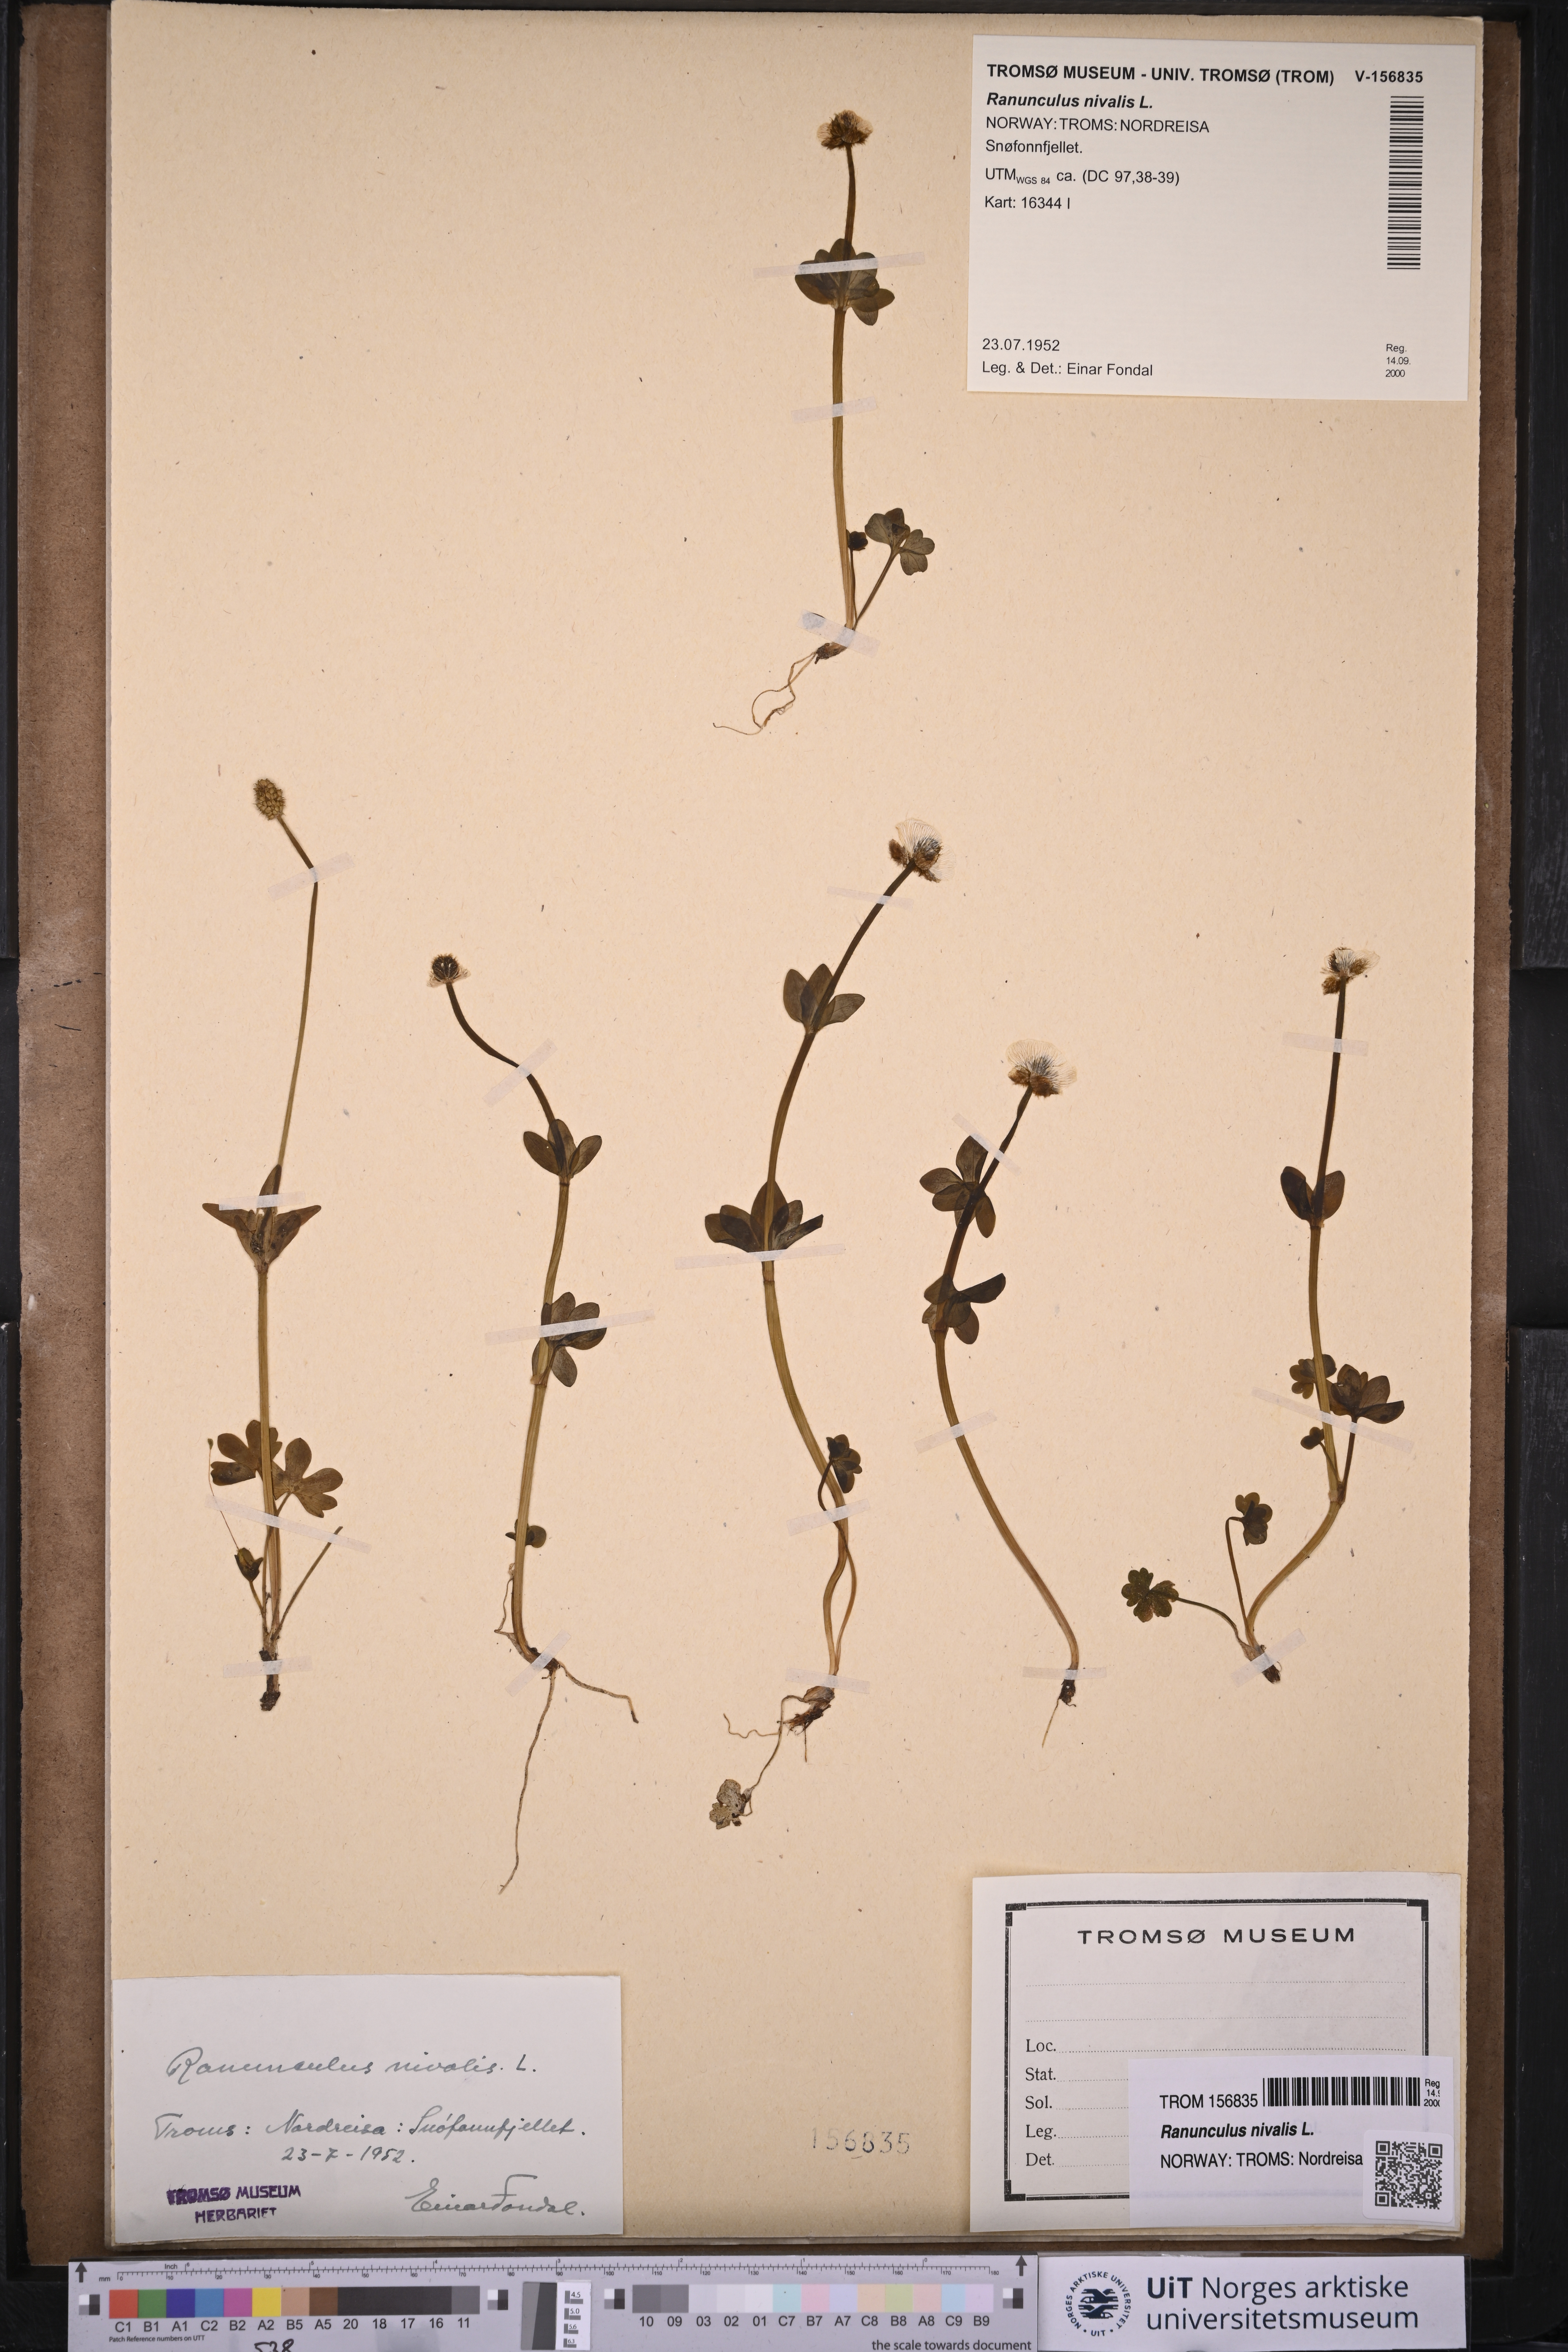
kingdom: Plantae
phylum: Tracheophyta
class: Magnoliopsida
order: Ranunculales
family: Ranunculaceae
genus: Ranunculus
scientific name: Ranunculus nivalis
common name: Snow buttercup
